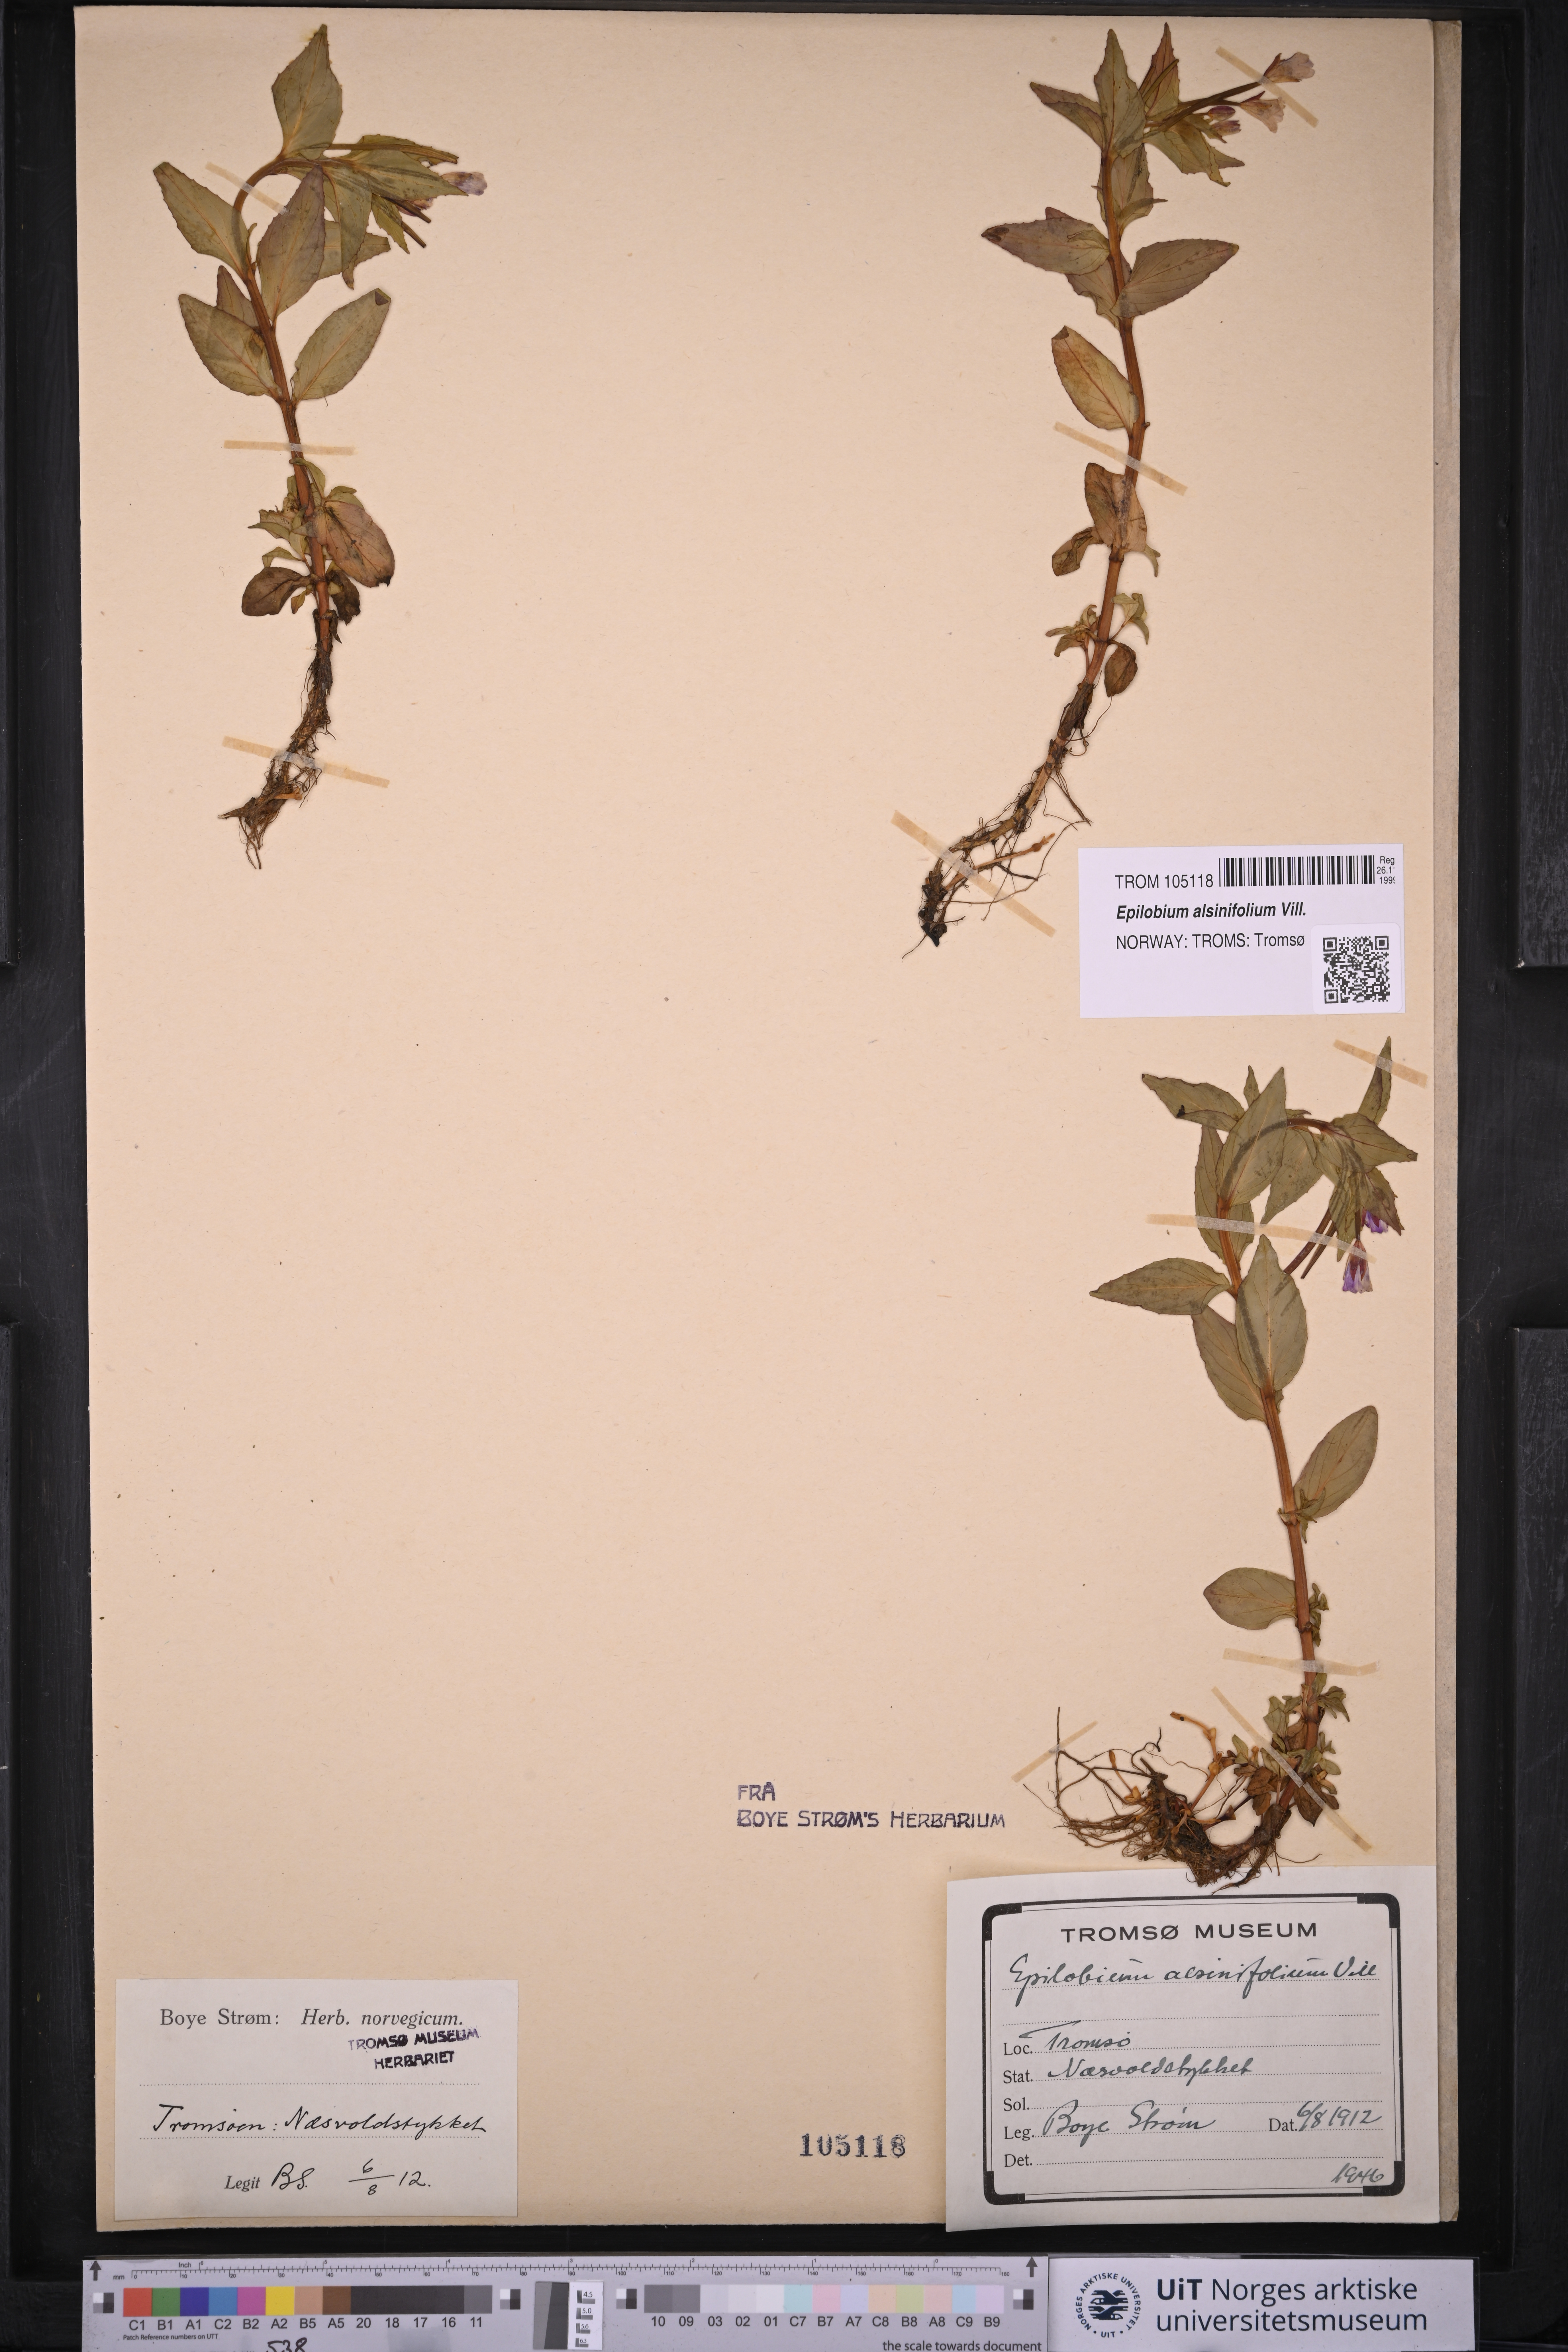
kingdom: Plantae
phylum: Tracheophyta
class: Magnoliopsida
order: Myrtales
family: Onagraceae
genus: Epilobium
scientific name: Epilobium alsinifolium
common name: Chickweed willowherb
